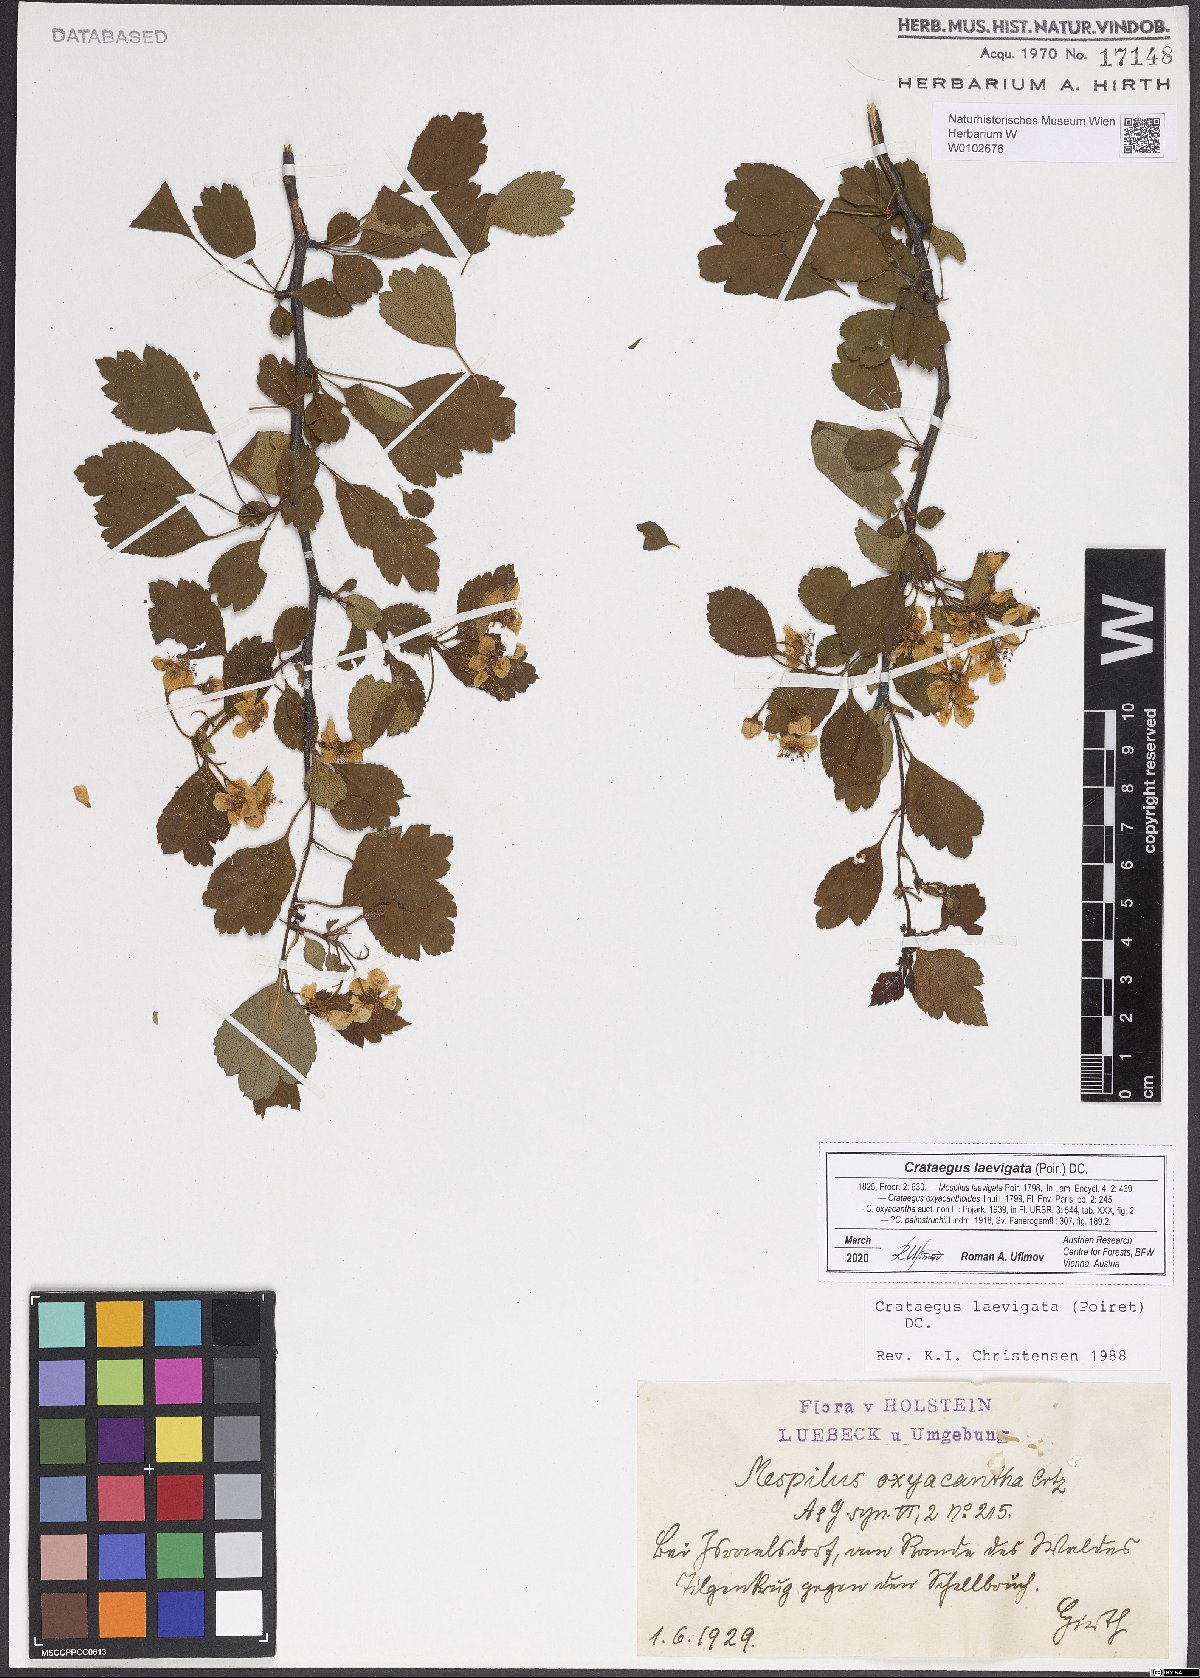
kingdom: Plantae
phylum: Tracheophyta
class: Magnoliopsida
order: Rosales
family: Rosaceae
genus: Crataegus
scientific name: Crataegus laevigata
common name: Midland hawthorn
